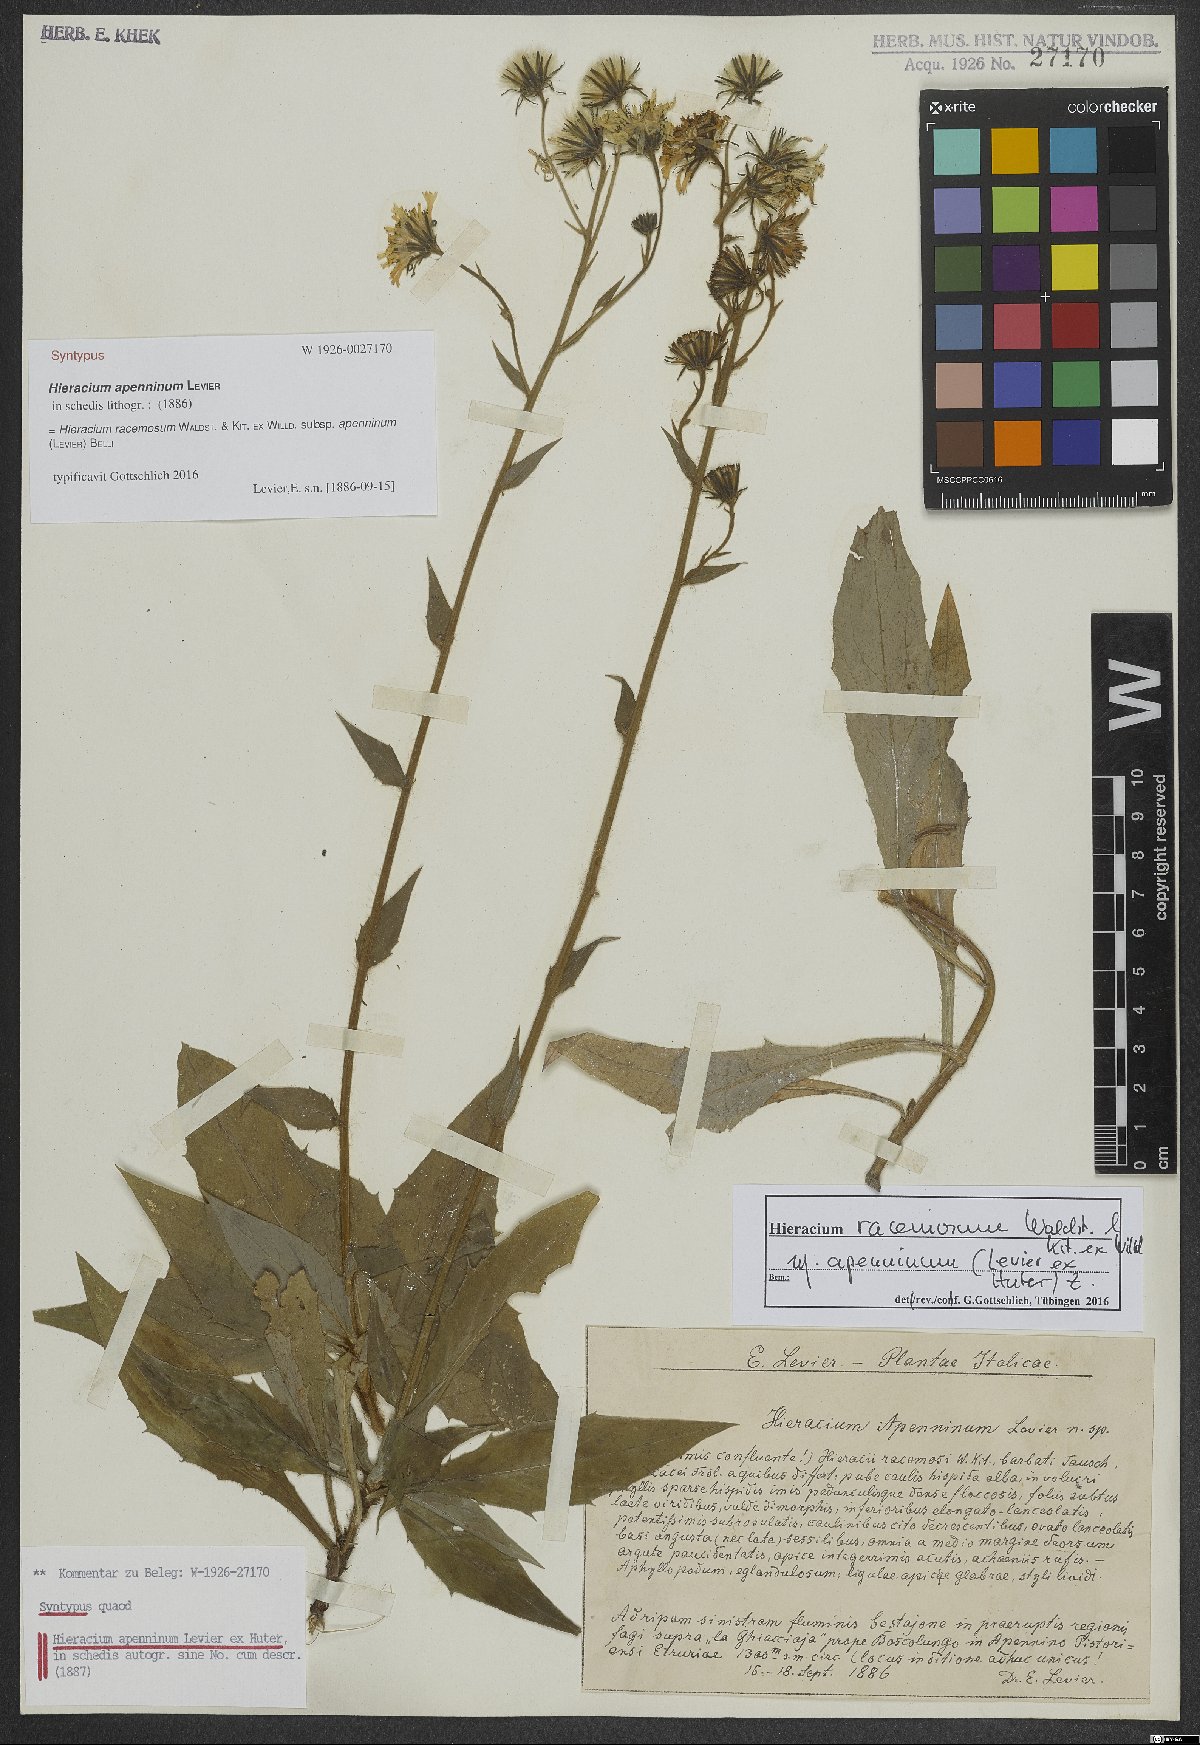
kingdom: Plantae
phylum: Tracheophyta
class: Magnoliopsida
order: Asterales
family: Asteraceae
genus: Hieracium
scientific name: Hieracium racemosum
